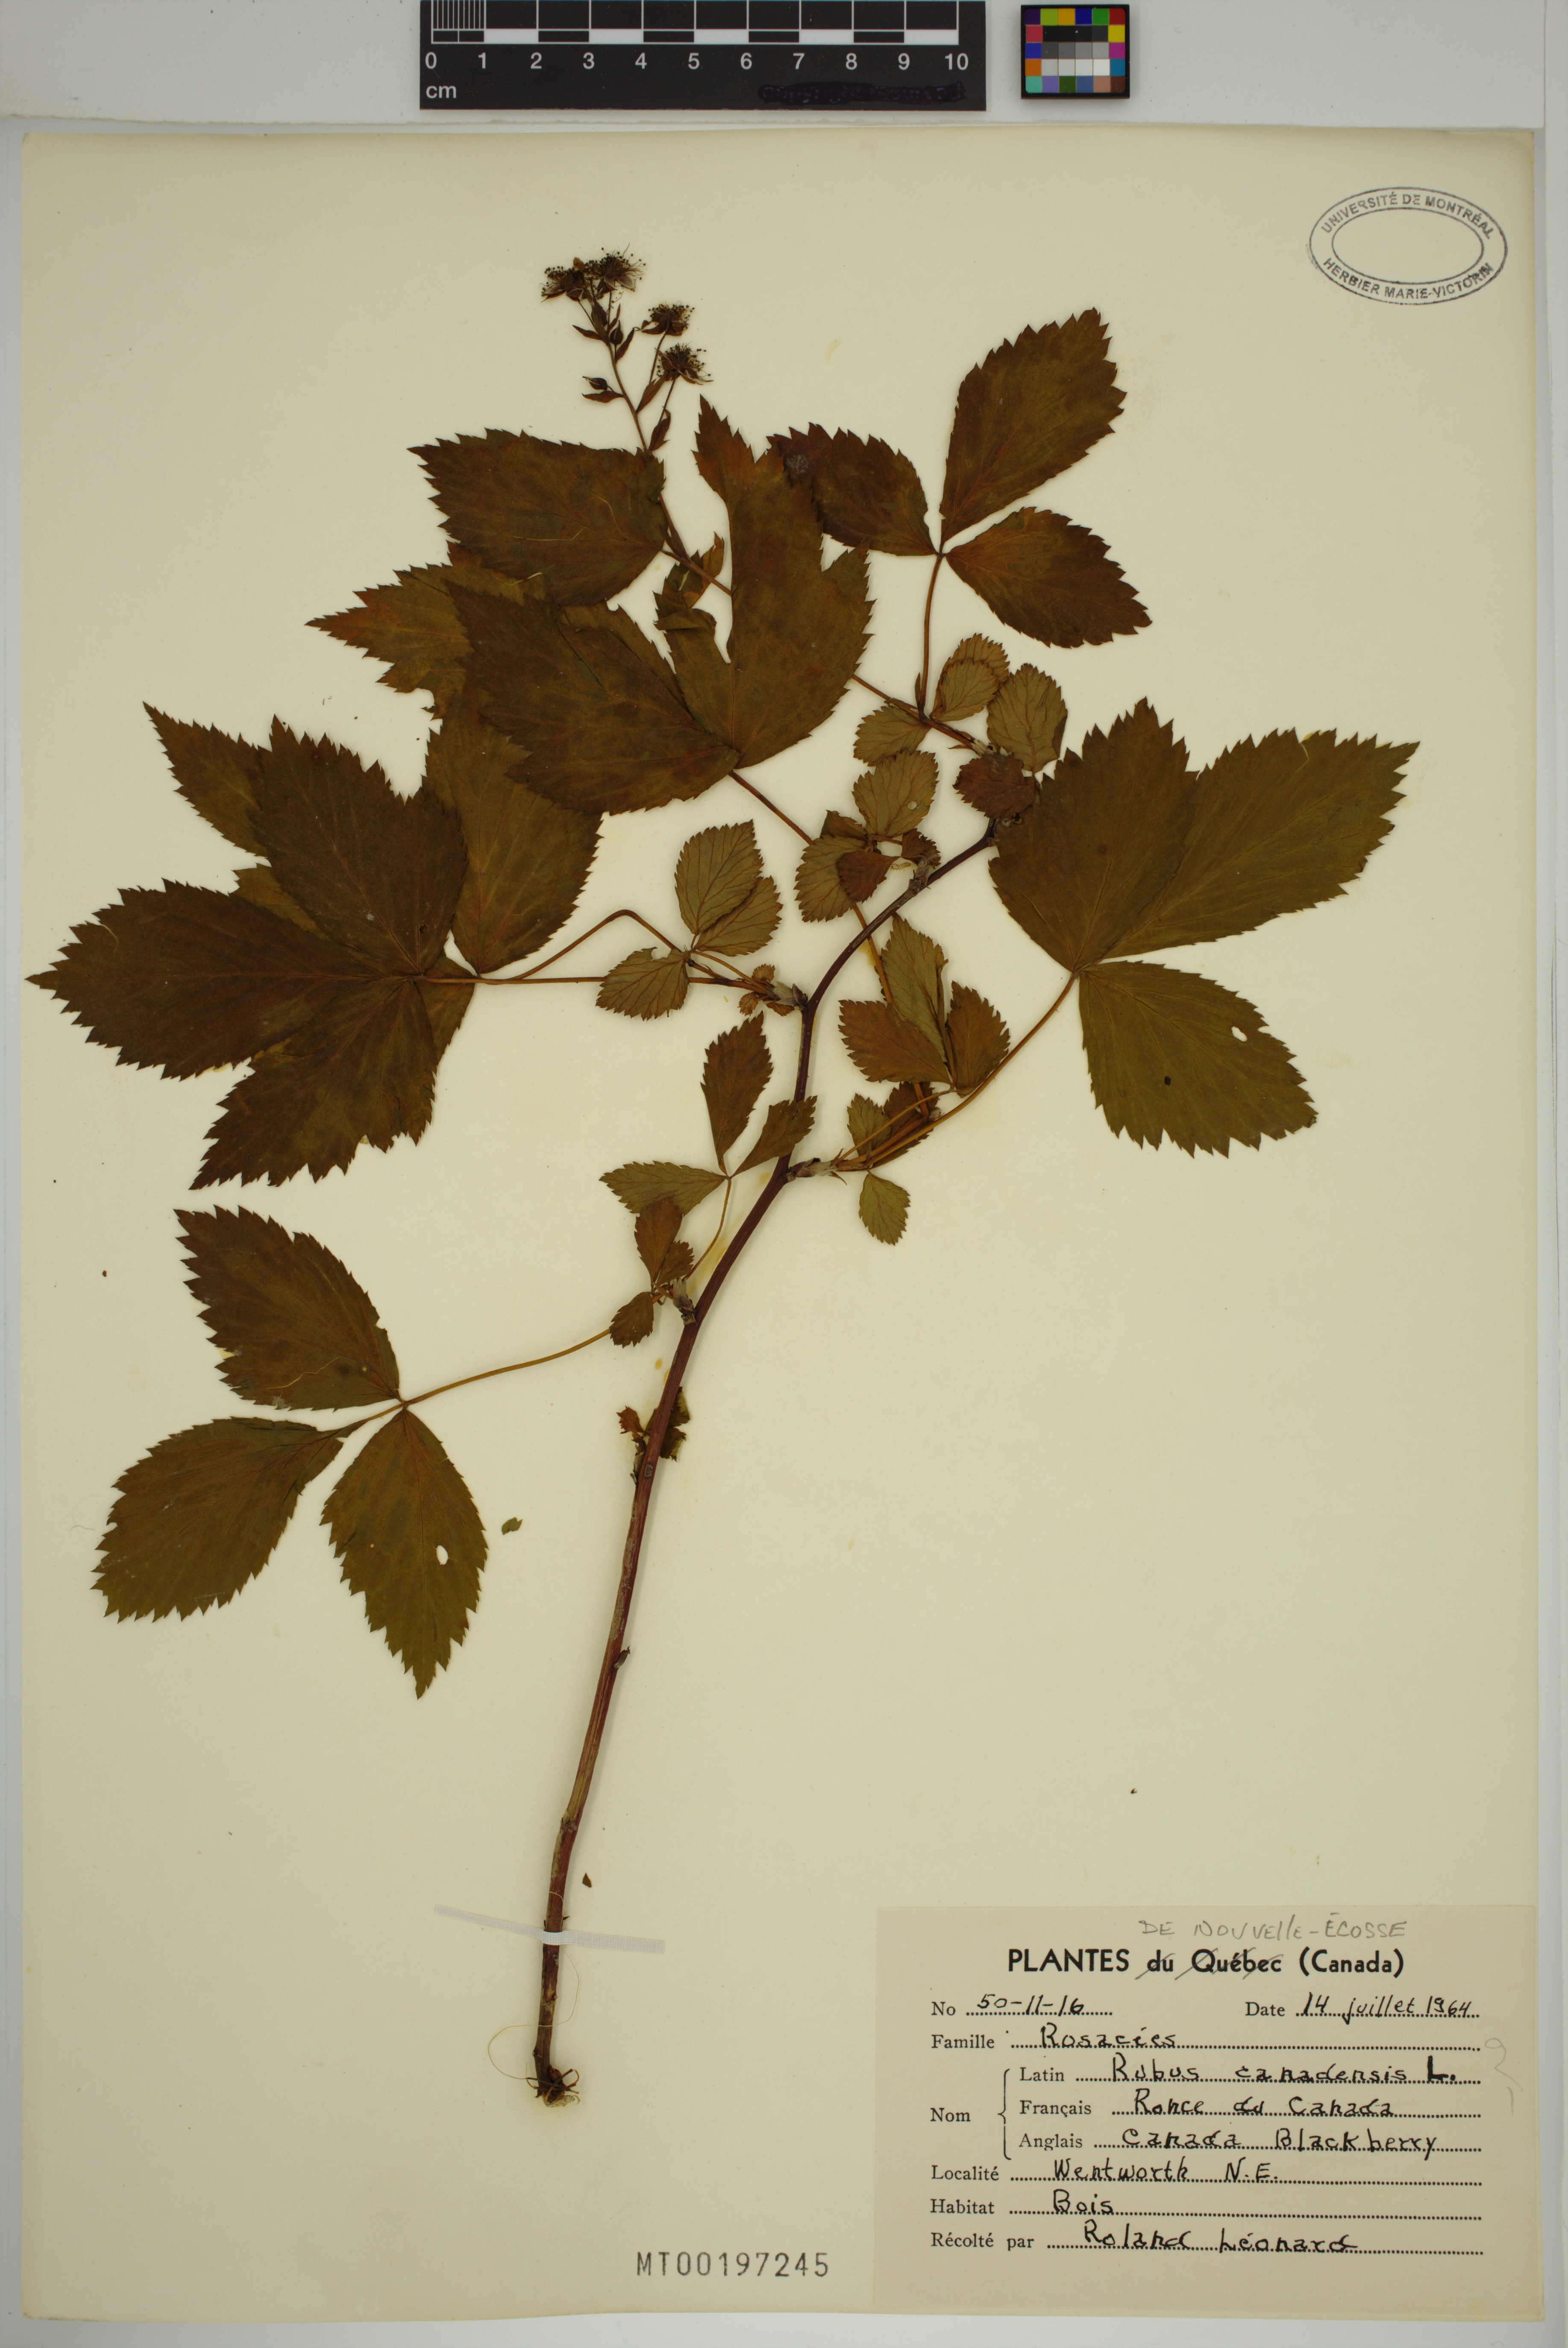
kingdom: Plantae
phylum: Tracheophyta
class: Magnoliopsida
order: Rosales
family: Rosaceae
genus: Rubus
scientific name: Rubus canadensis
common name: Smooth blackberry
